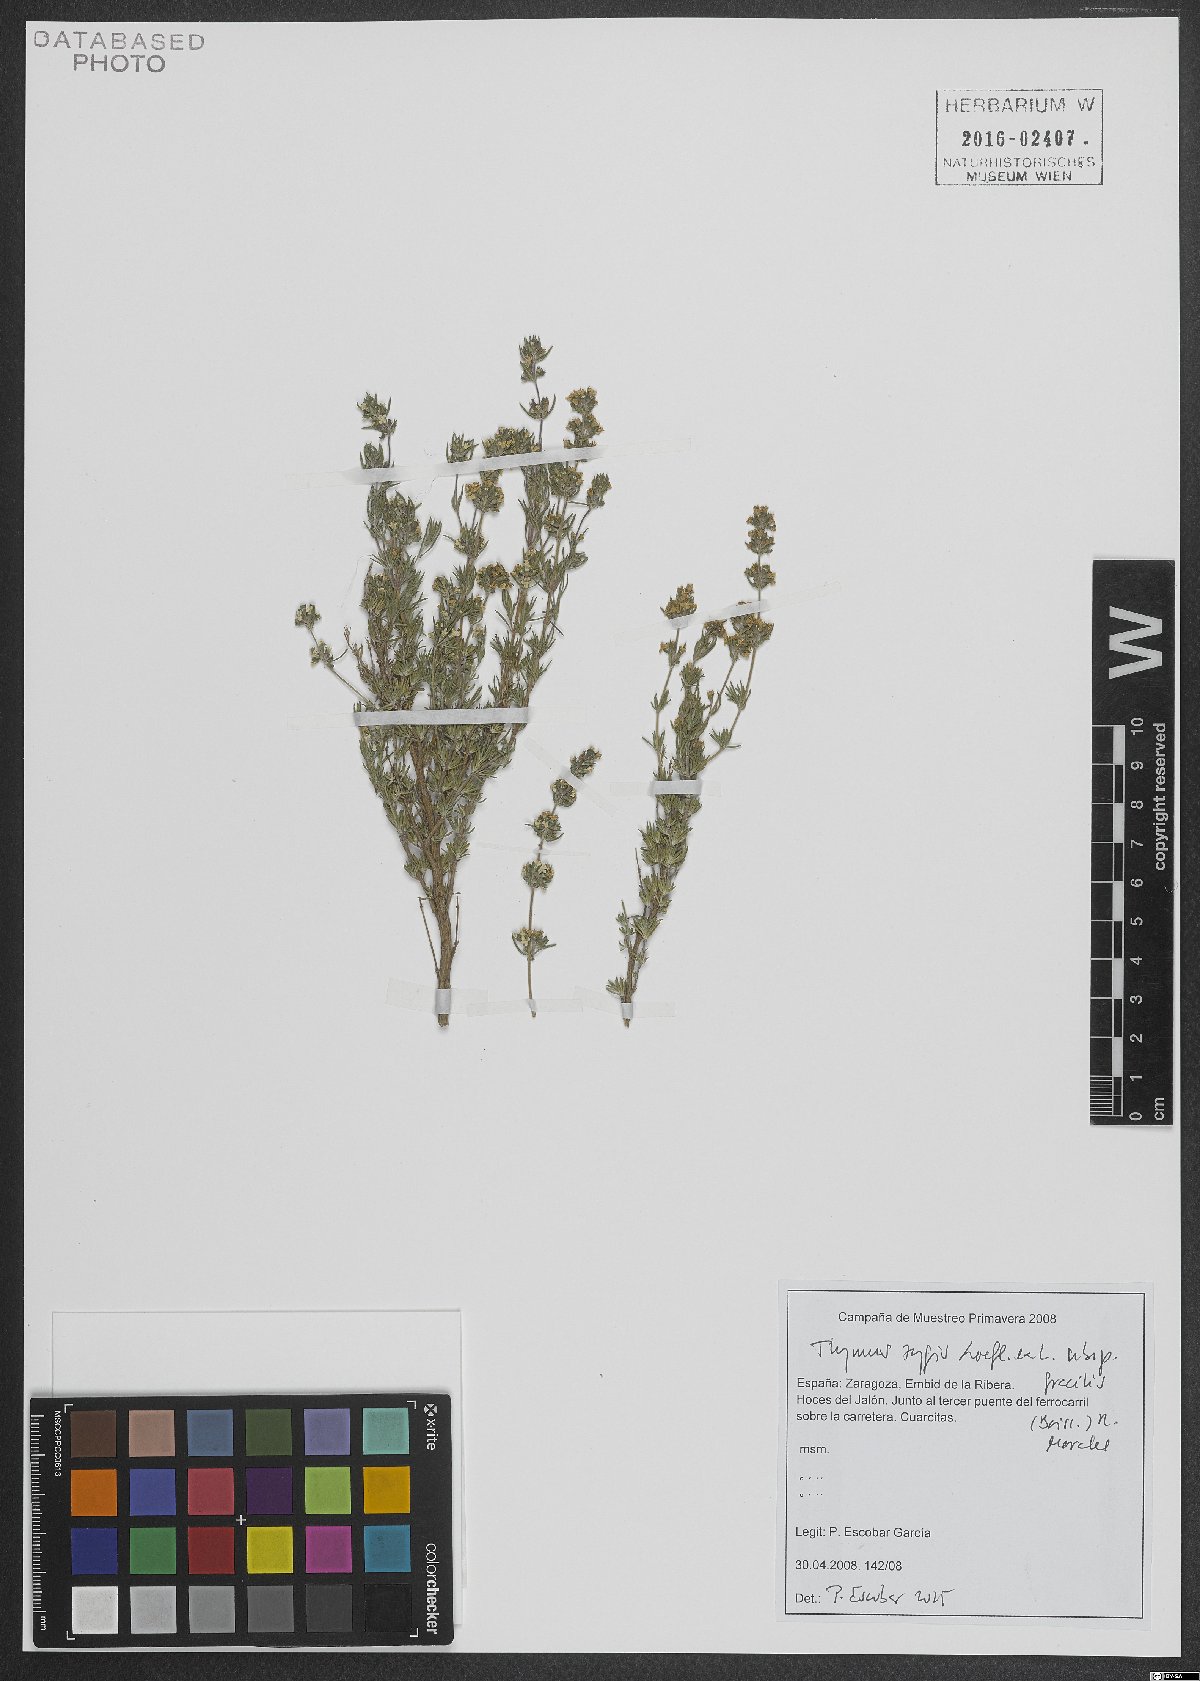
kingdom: Plantae
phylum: Tracheophyta
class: Magnoliopsida
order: Lamiales
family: Lamiaceae
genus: Thymus
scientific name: Thymus zygis
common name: White thyme
